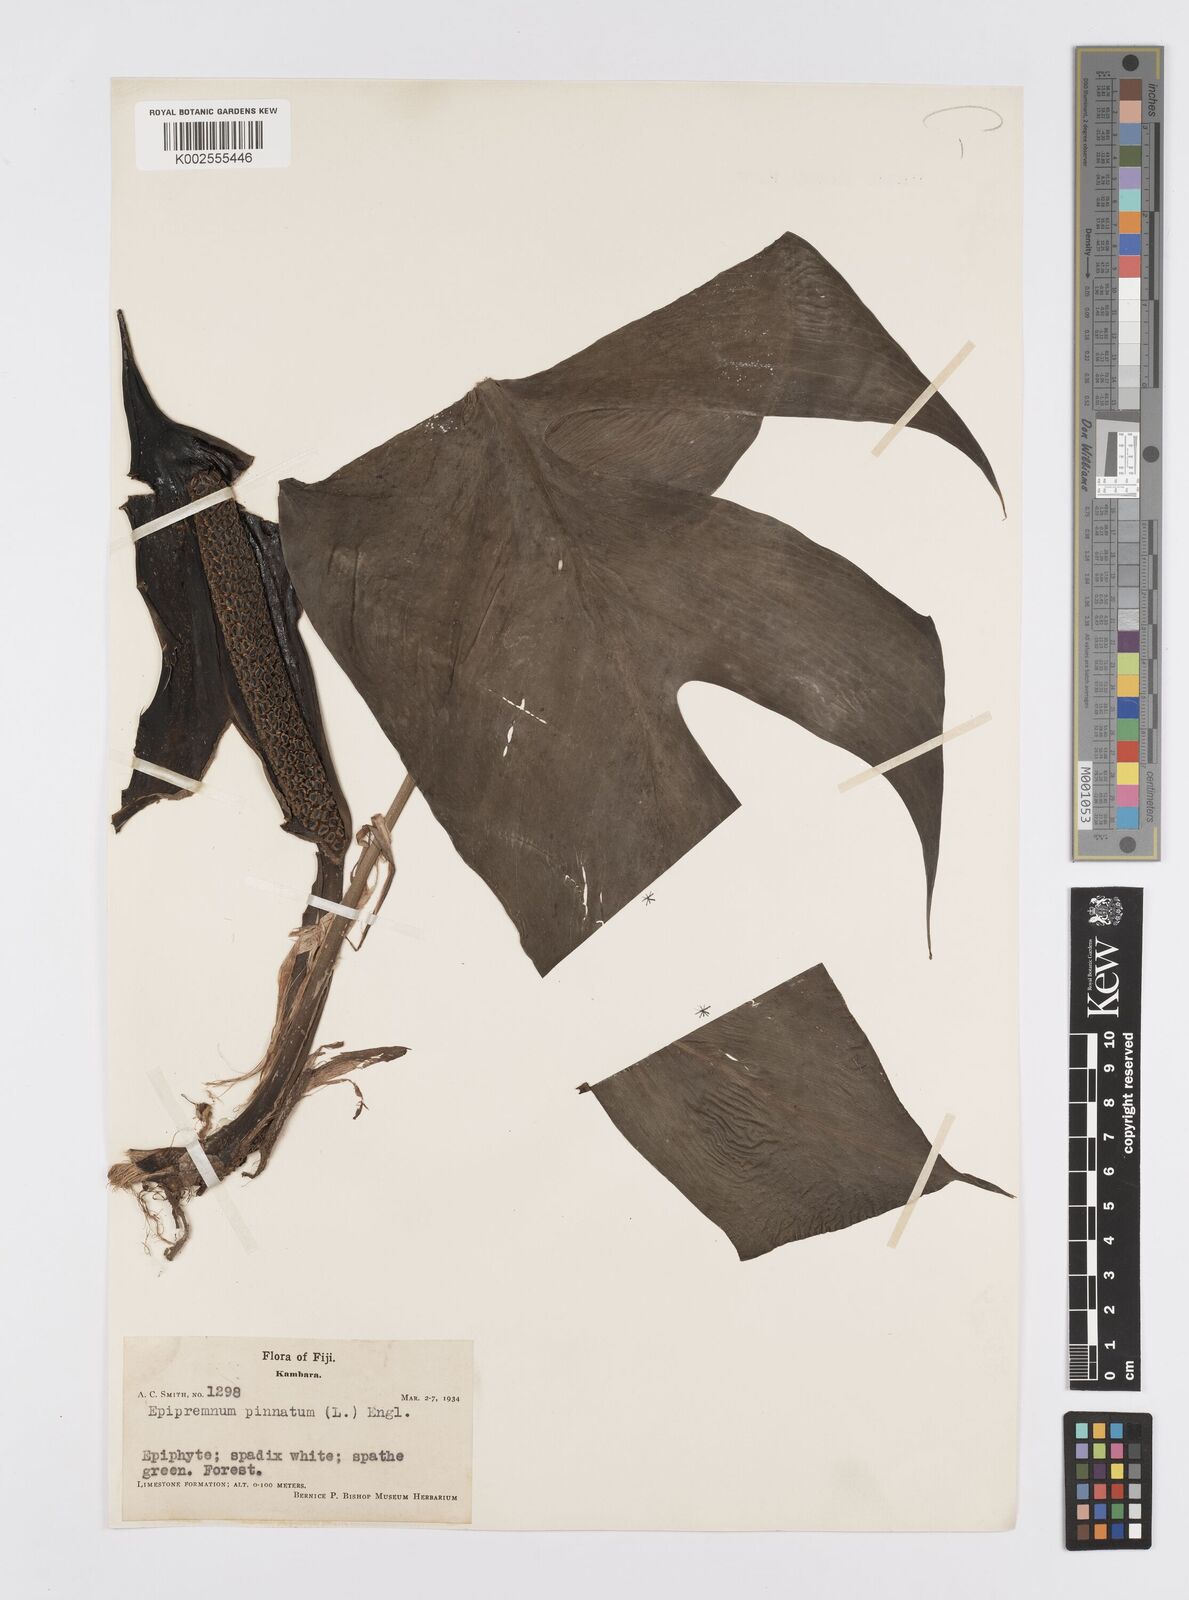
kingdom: Plantae
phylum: Tracheophyta
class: Liliopsida
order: Alismatales
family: Araceae
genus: Epipremnum
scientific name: Epipremnum pinnatum
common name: Centipede tongavine
